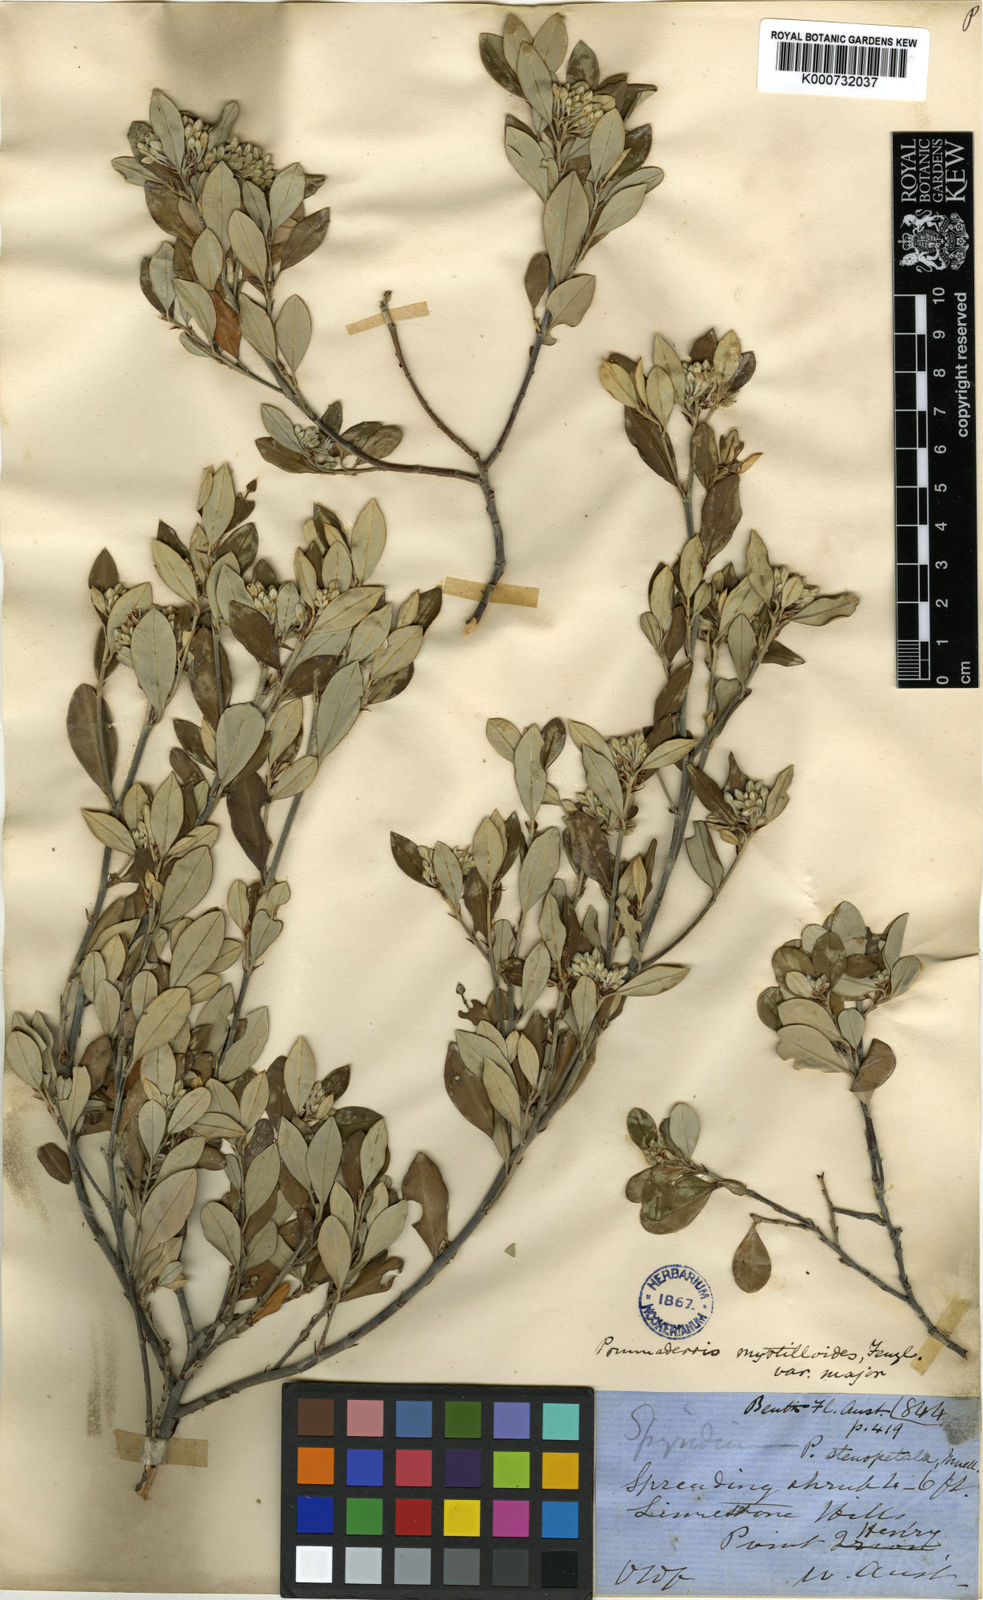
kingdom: Plantae
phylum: Tracheophyta
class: Magnoliopsida
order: Rosales
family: Rhamnaceae
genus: Pomaderris
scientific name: Pomaderris myrtilloides
